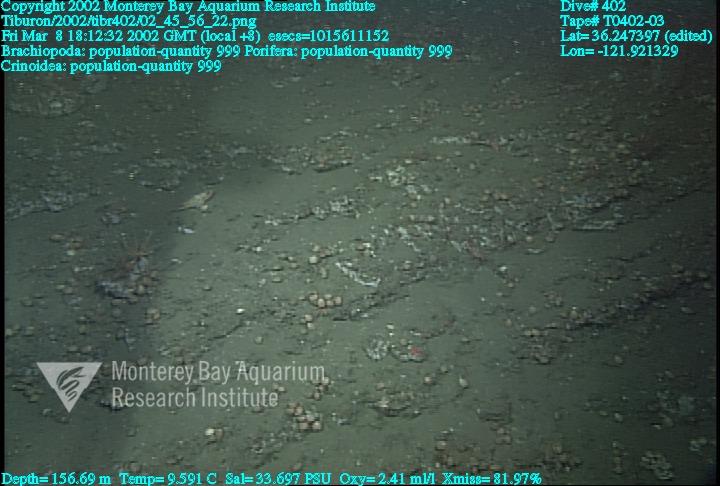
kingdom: Animalia
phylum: Porifera
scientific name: Porifera
